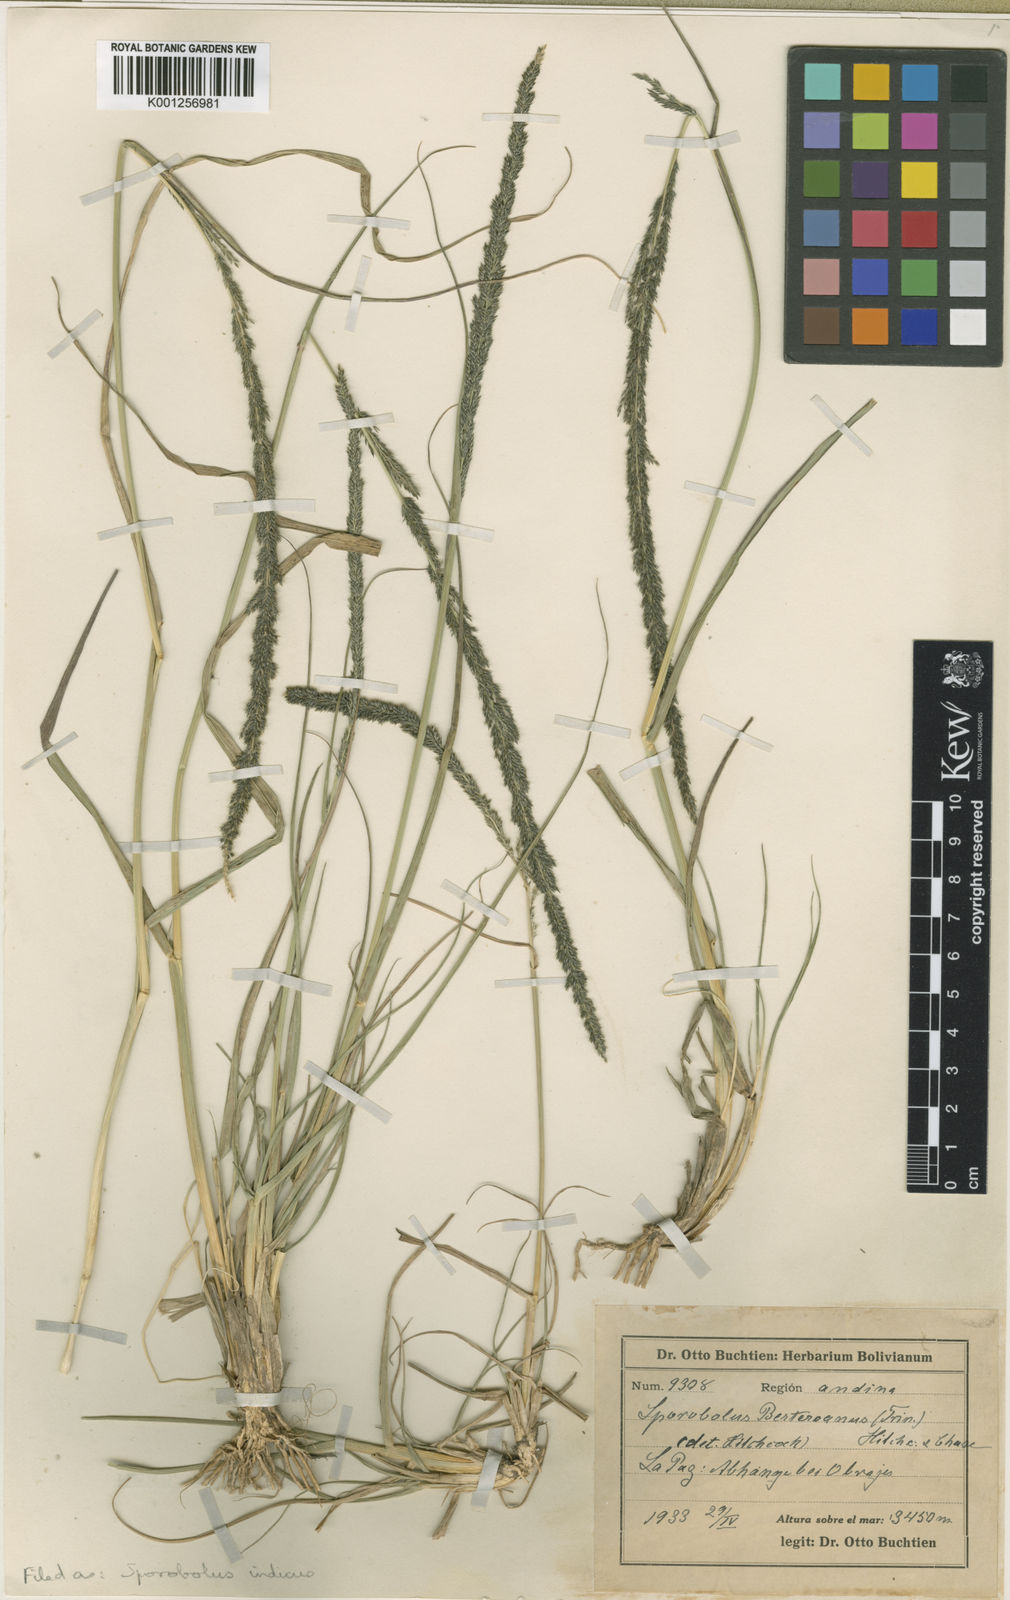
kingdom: Plantae
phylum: Tracheophyta
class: Liliopsida
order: Poales
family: Poaceae
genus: Sporobolus
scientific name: Sporobolus indicus
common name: Smut grass
